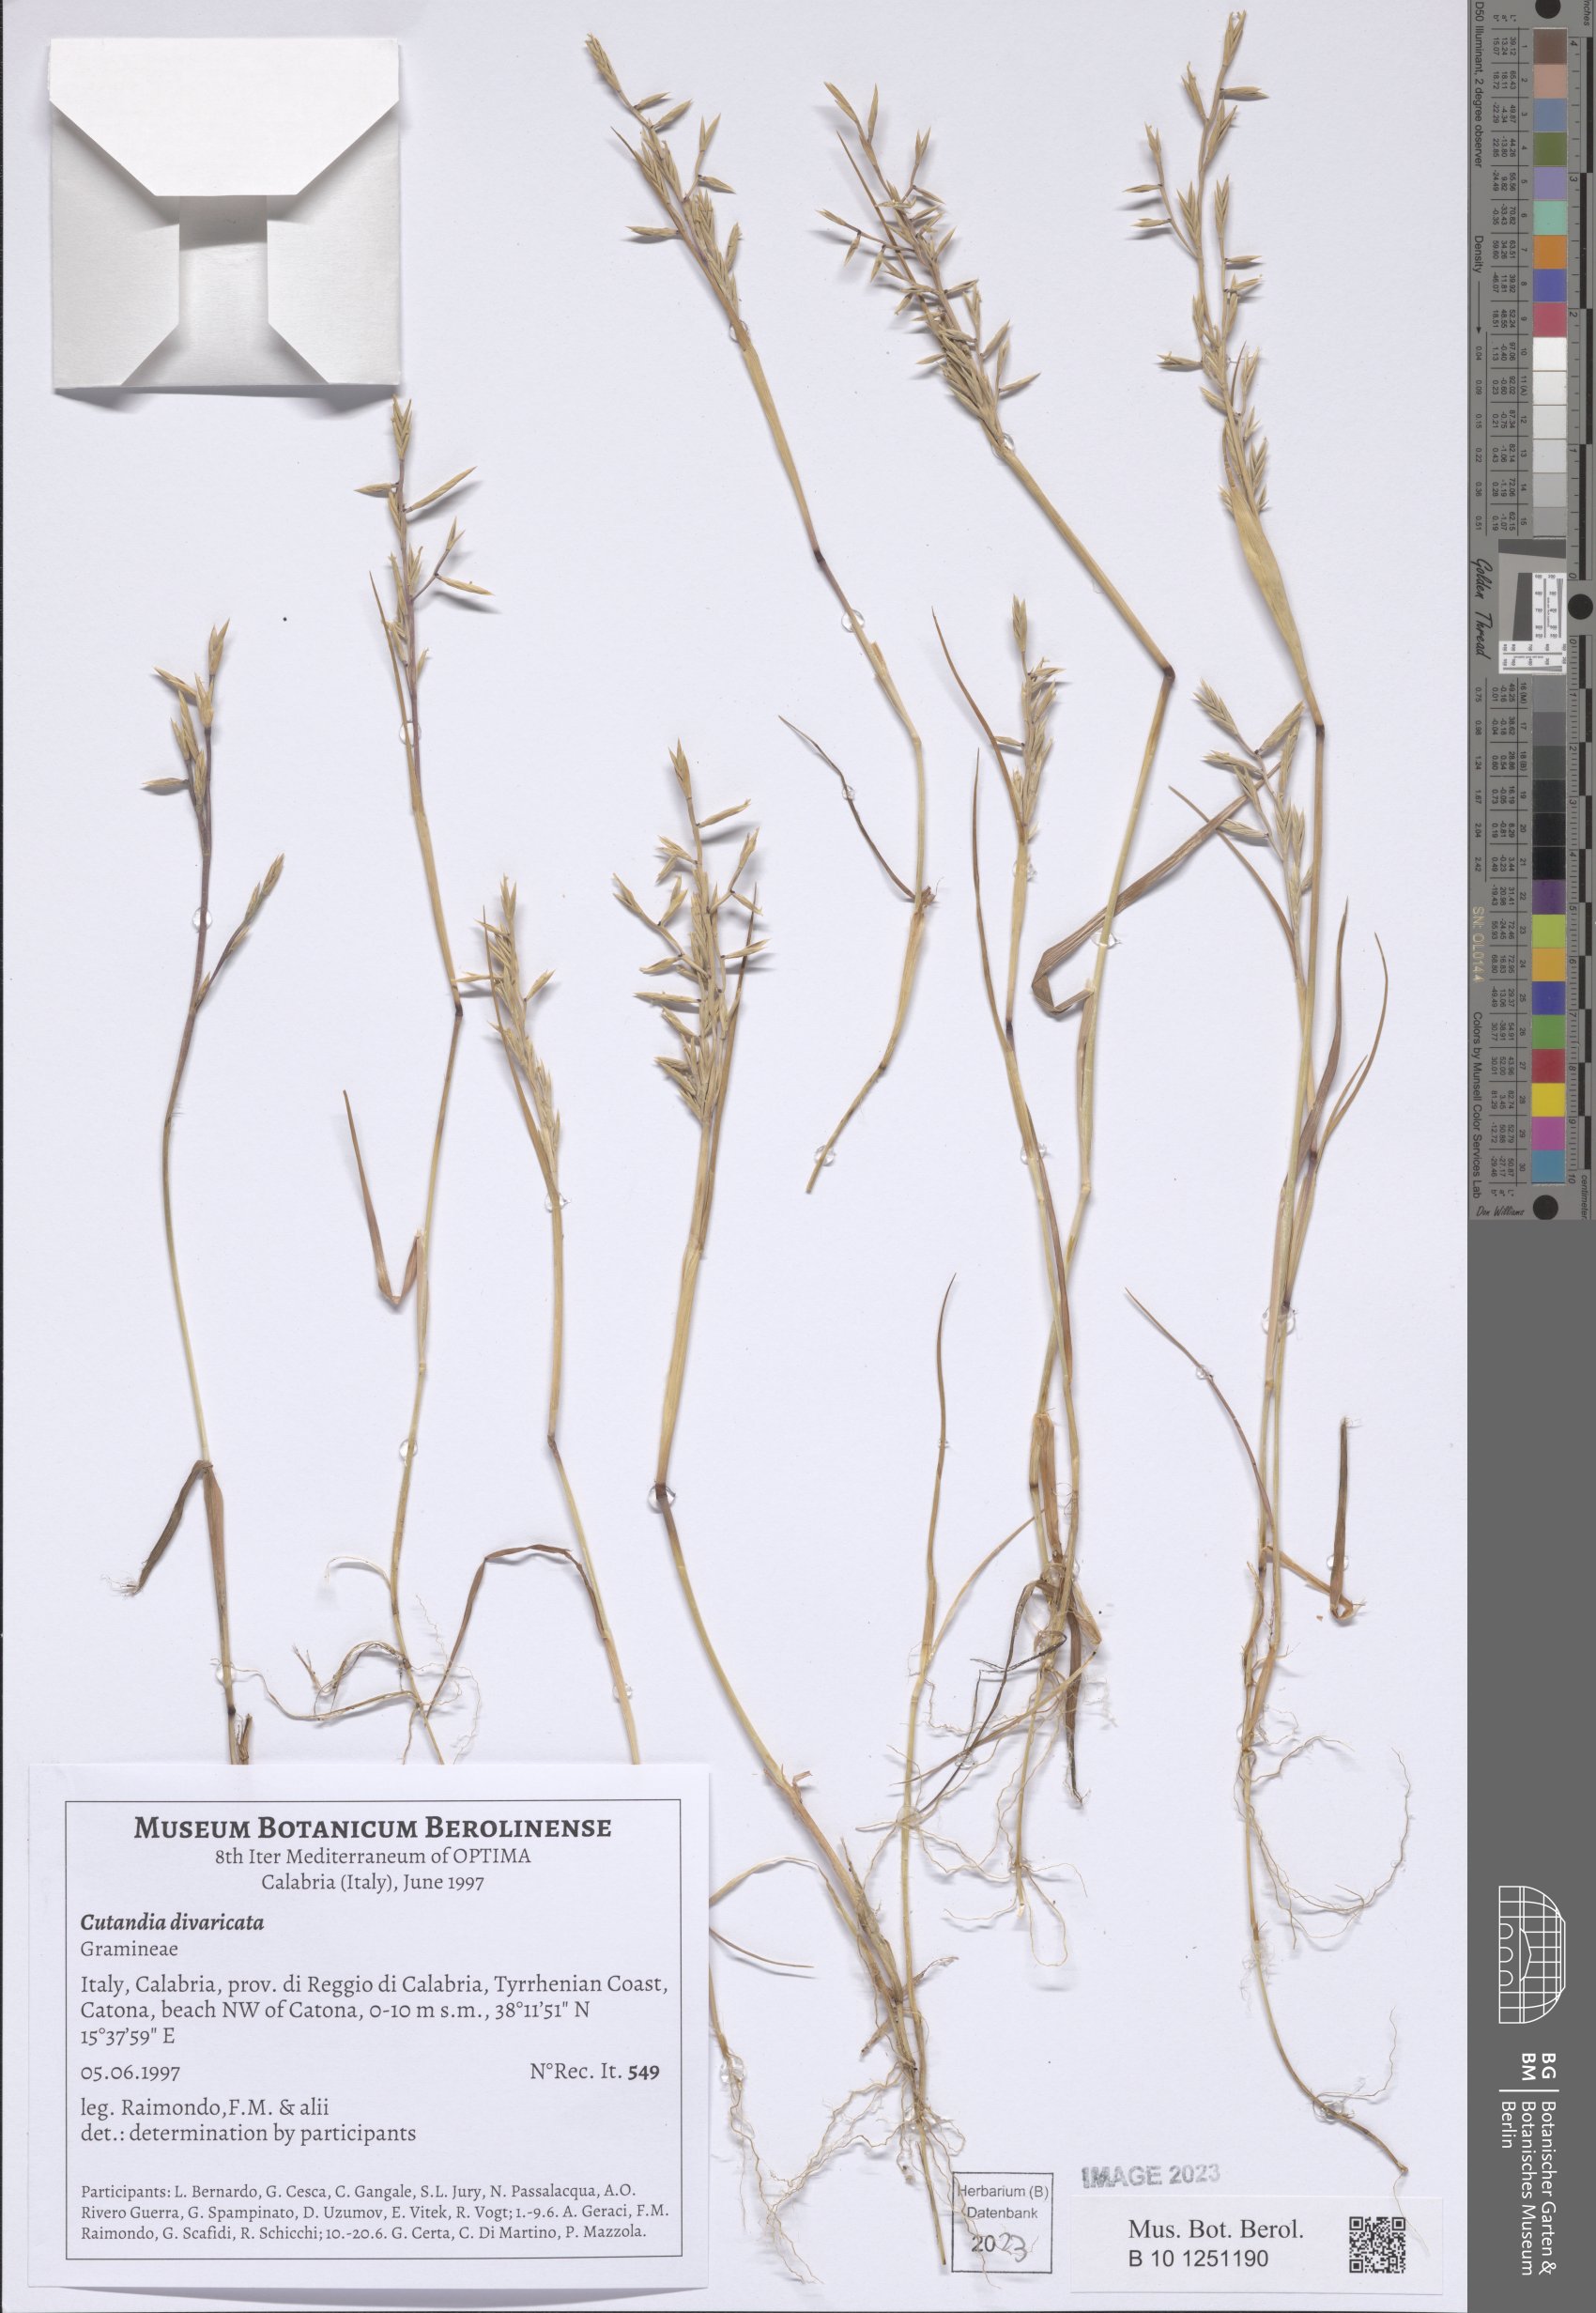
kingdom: Plantae
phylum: Tracheophyta
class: Liliopsida
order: Poales
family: Poaceae
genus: Cutandia
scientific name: Cutandia divaricata
